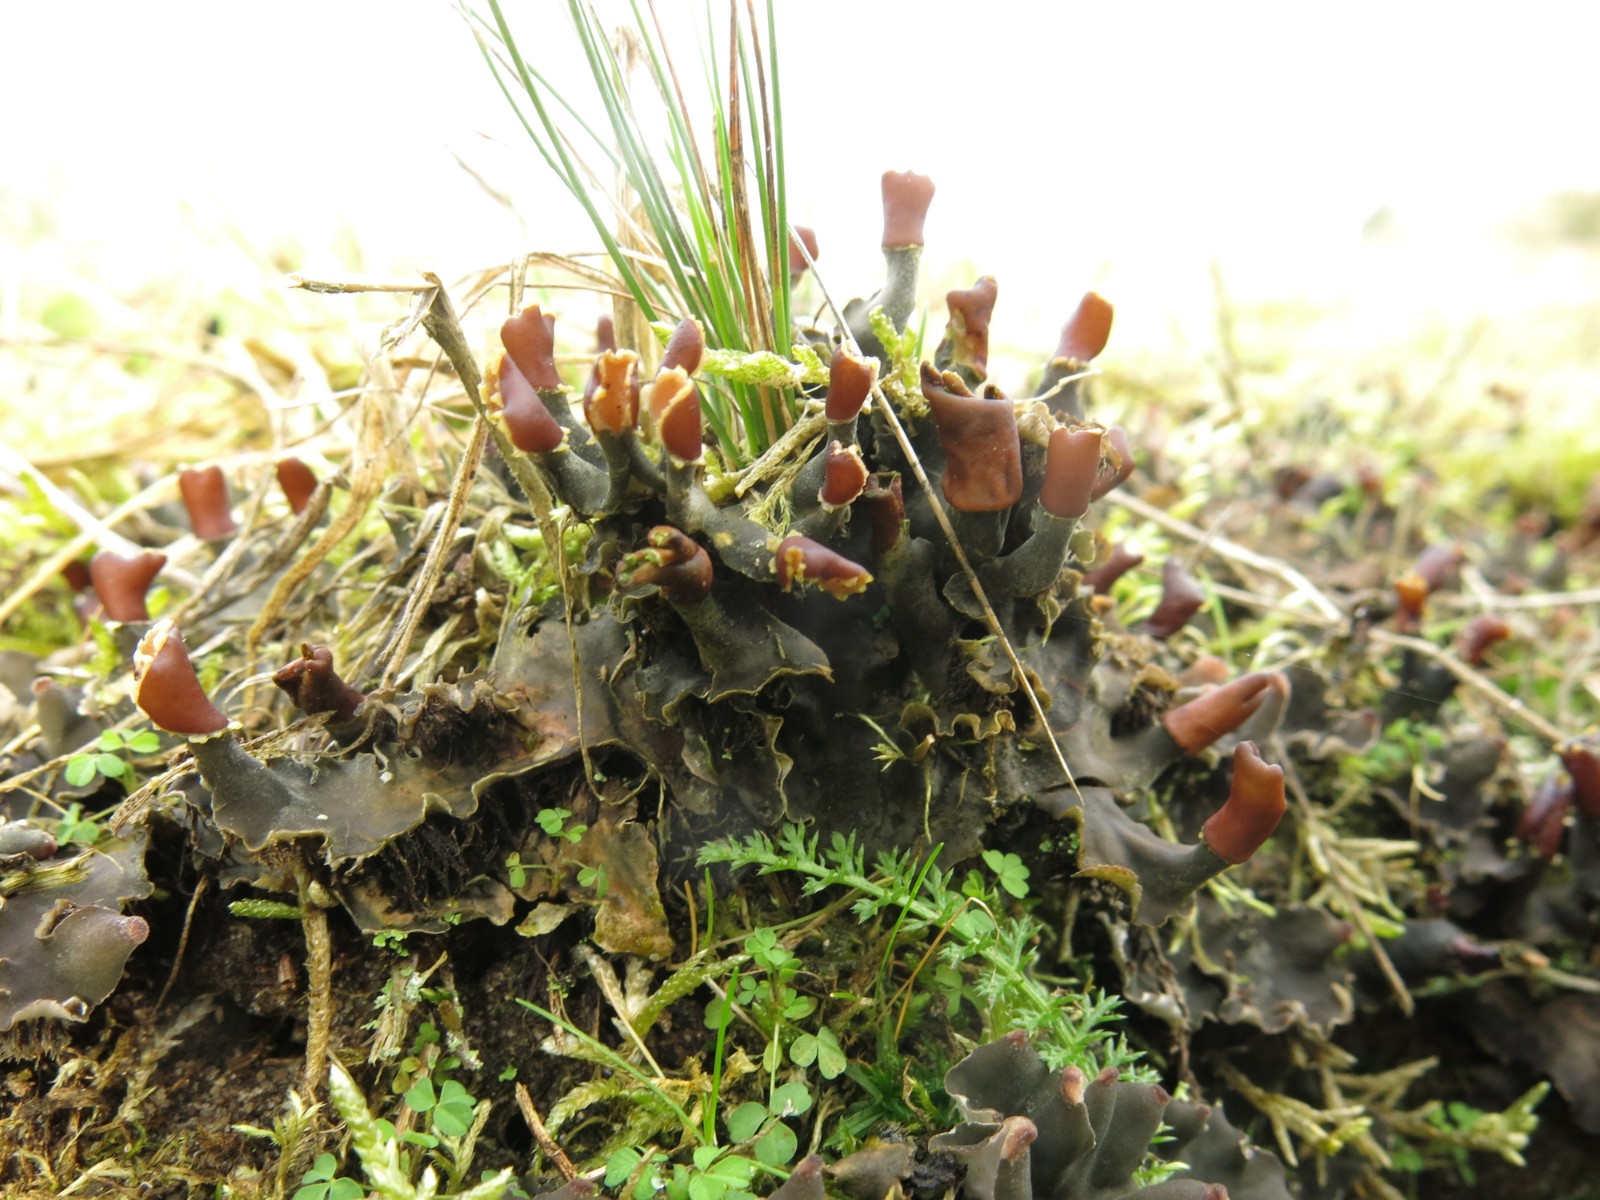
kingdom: Fungi
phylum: Ascomycota
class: Lecanoromycetes
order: Peltigerales
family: Peltigeraceae
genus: Peltigera
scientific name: Peltigera rufescens
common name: brun skjoldlav
